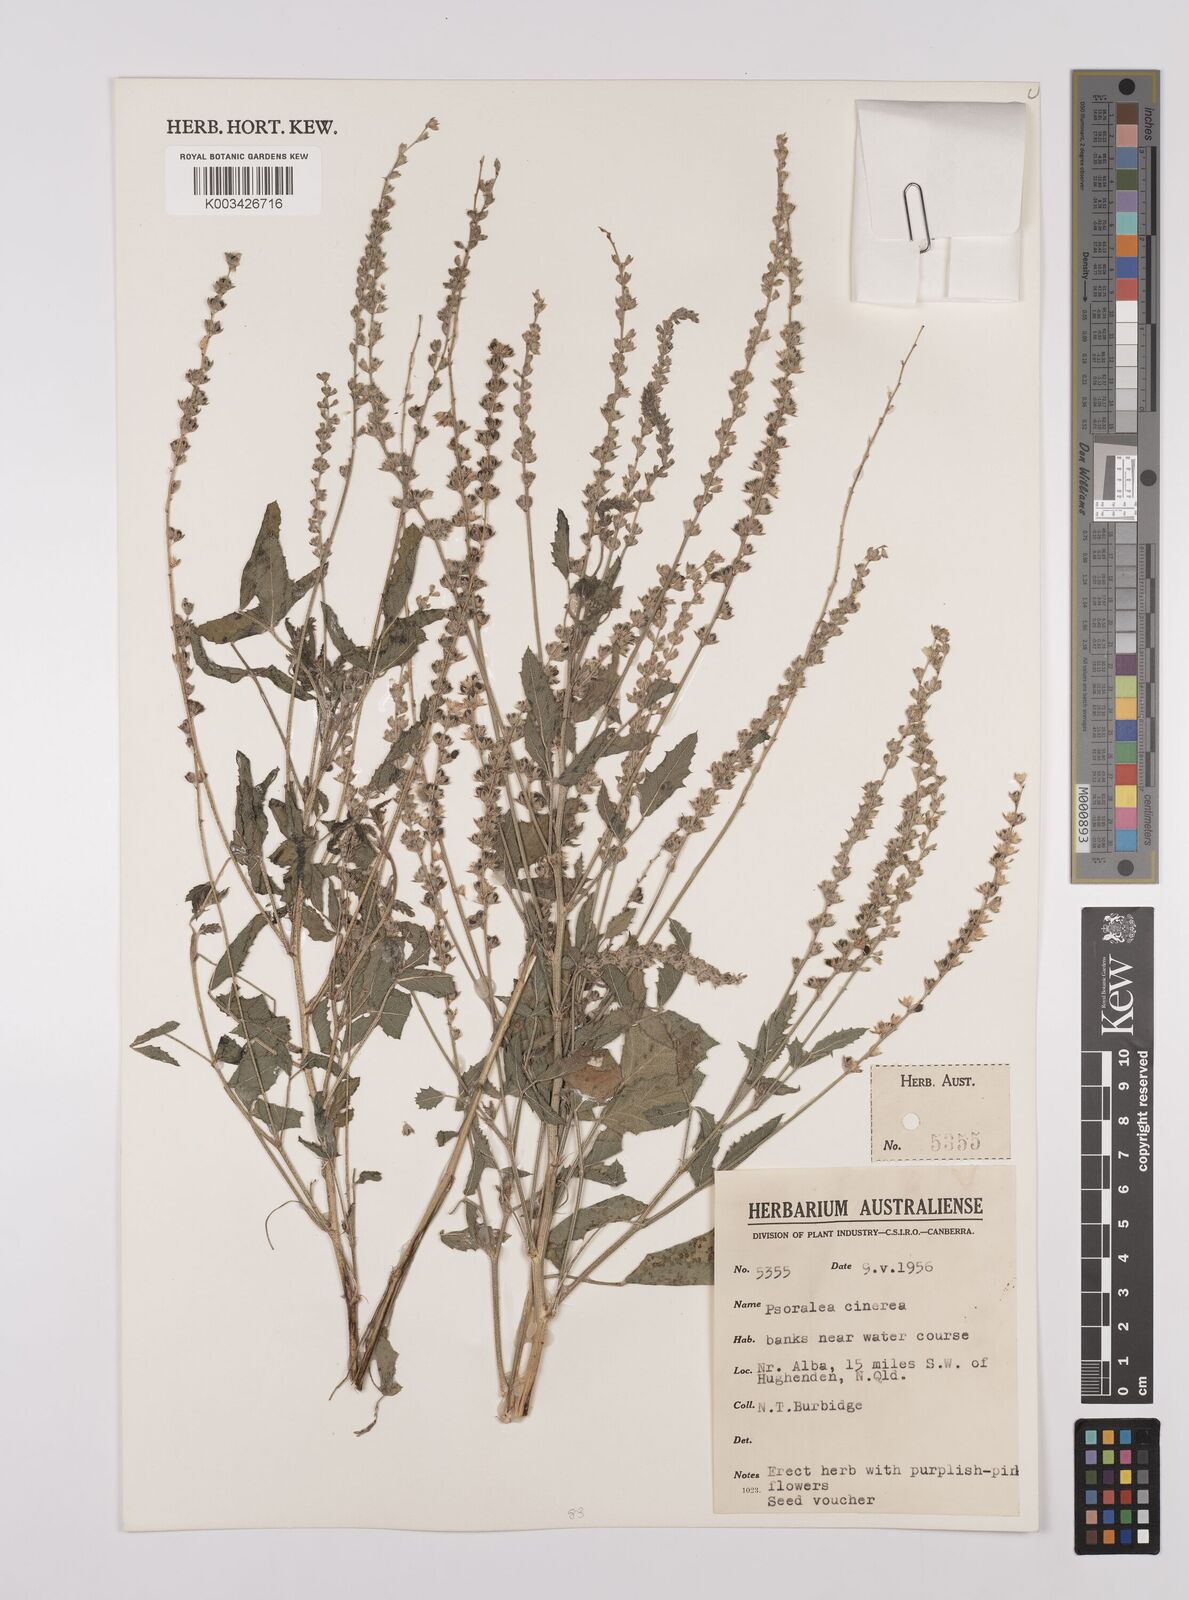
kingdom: Plantae
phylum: Tracheophyta
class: Magnoliopsida
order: Fabales
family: Fabaceae
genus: Cullen
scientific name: Cullen cinereum
